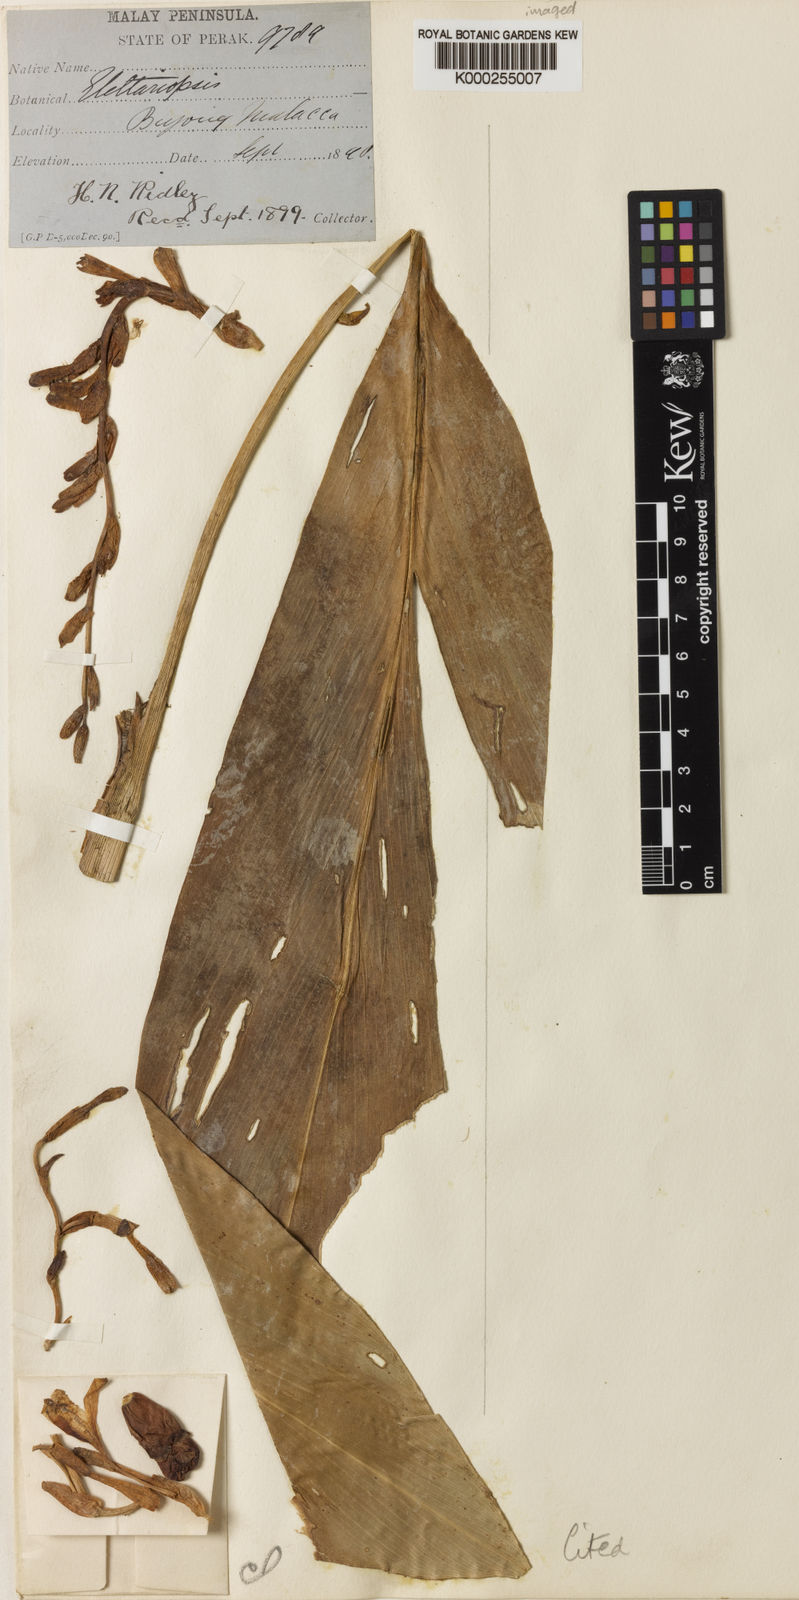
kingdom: Plantae
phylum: Tracheophyta
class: Liliopsida
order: Zingiberales
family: Zingiberaceae
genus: Amomum
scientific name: Amomum curtisii
